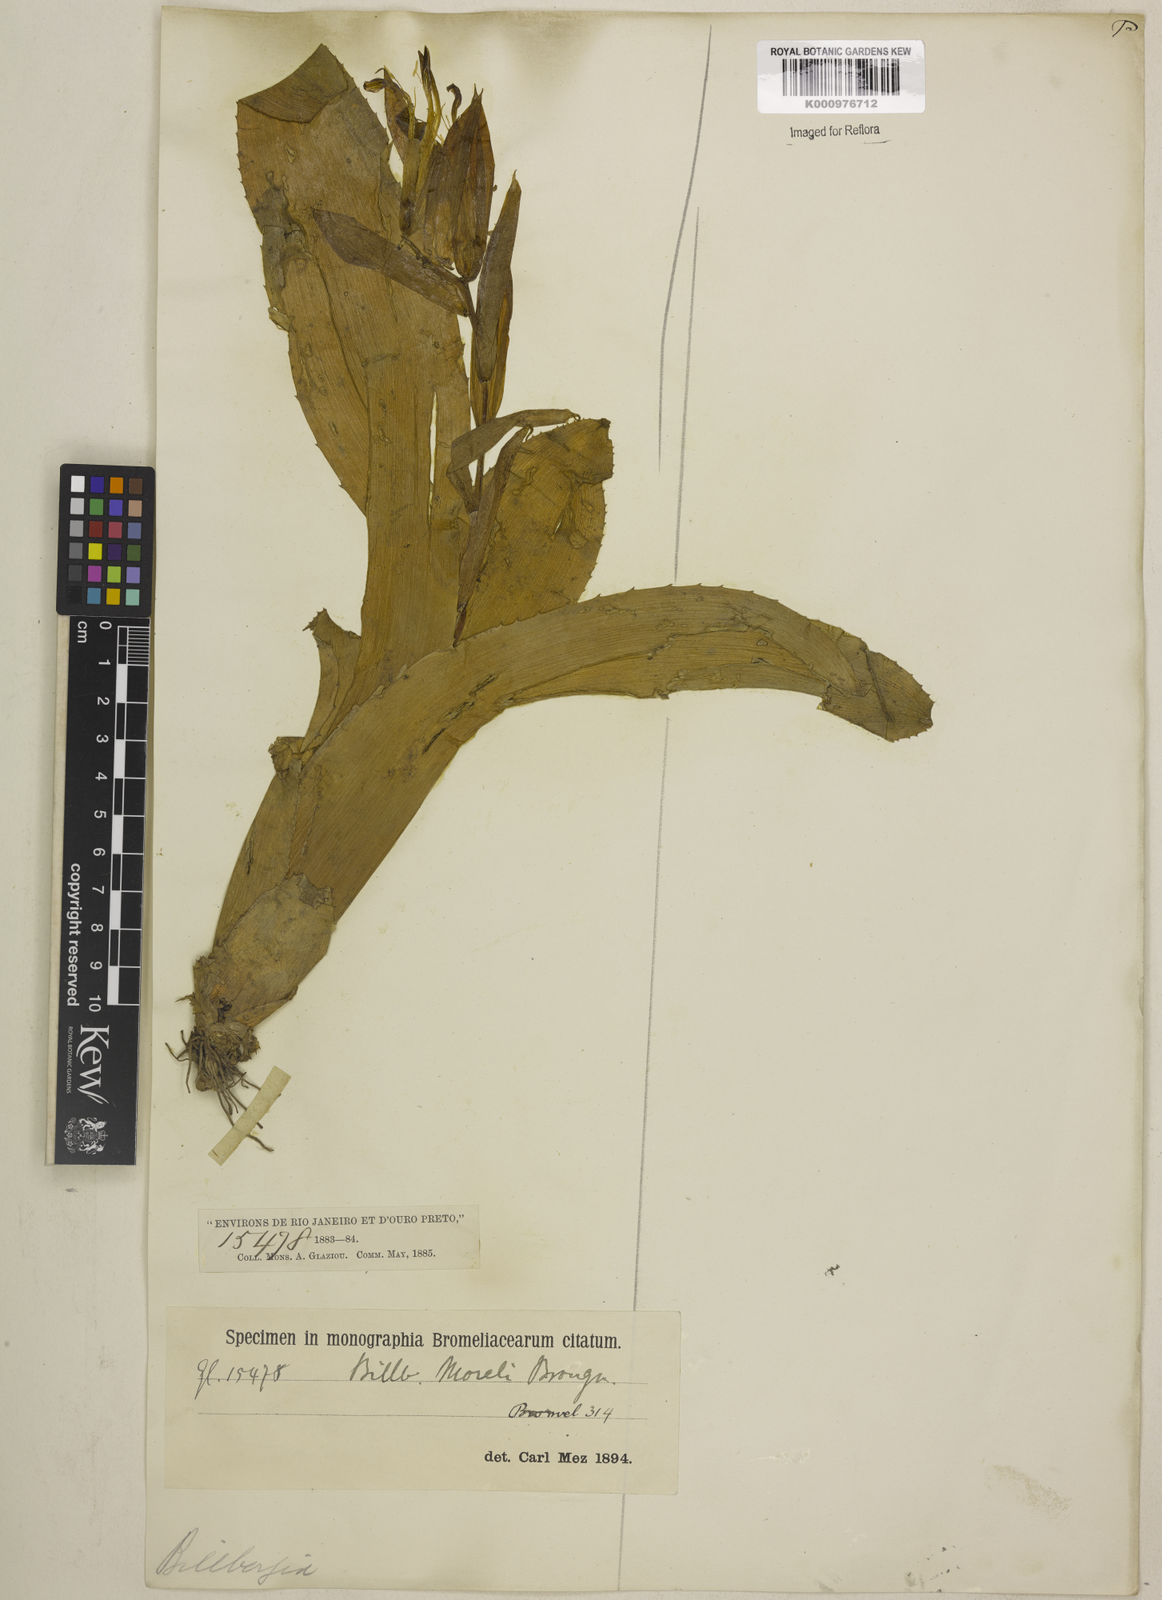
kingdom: Plantae
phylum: Tracheophyta
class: Liliopsida
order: Poales
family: Bromeliaceae
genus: Billbergia
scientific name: Billbergia morelii
